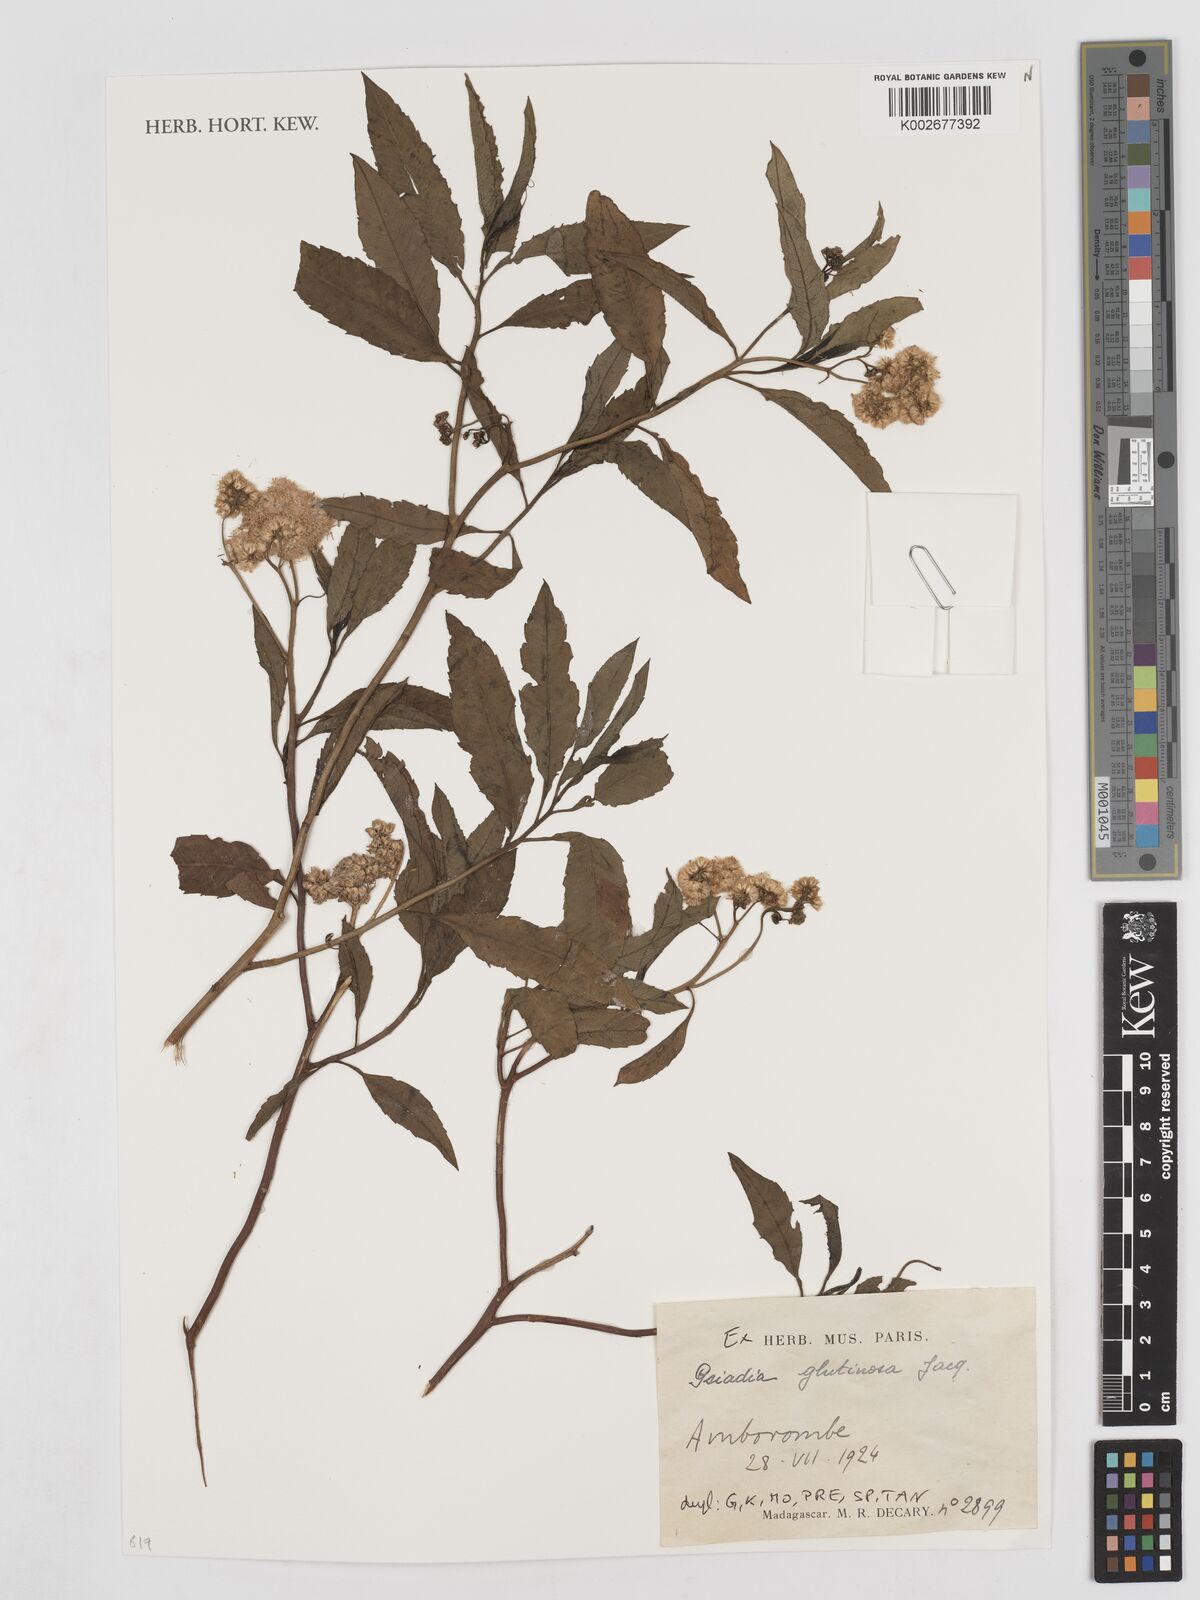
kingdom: Plantae
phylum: Tracheophyta
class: Magnoliopsida
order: Asterales
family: Asteraceae
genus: Psiadia
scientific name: Psiadia glutinosa
